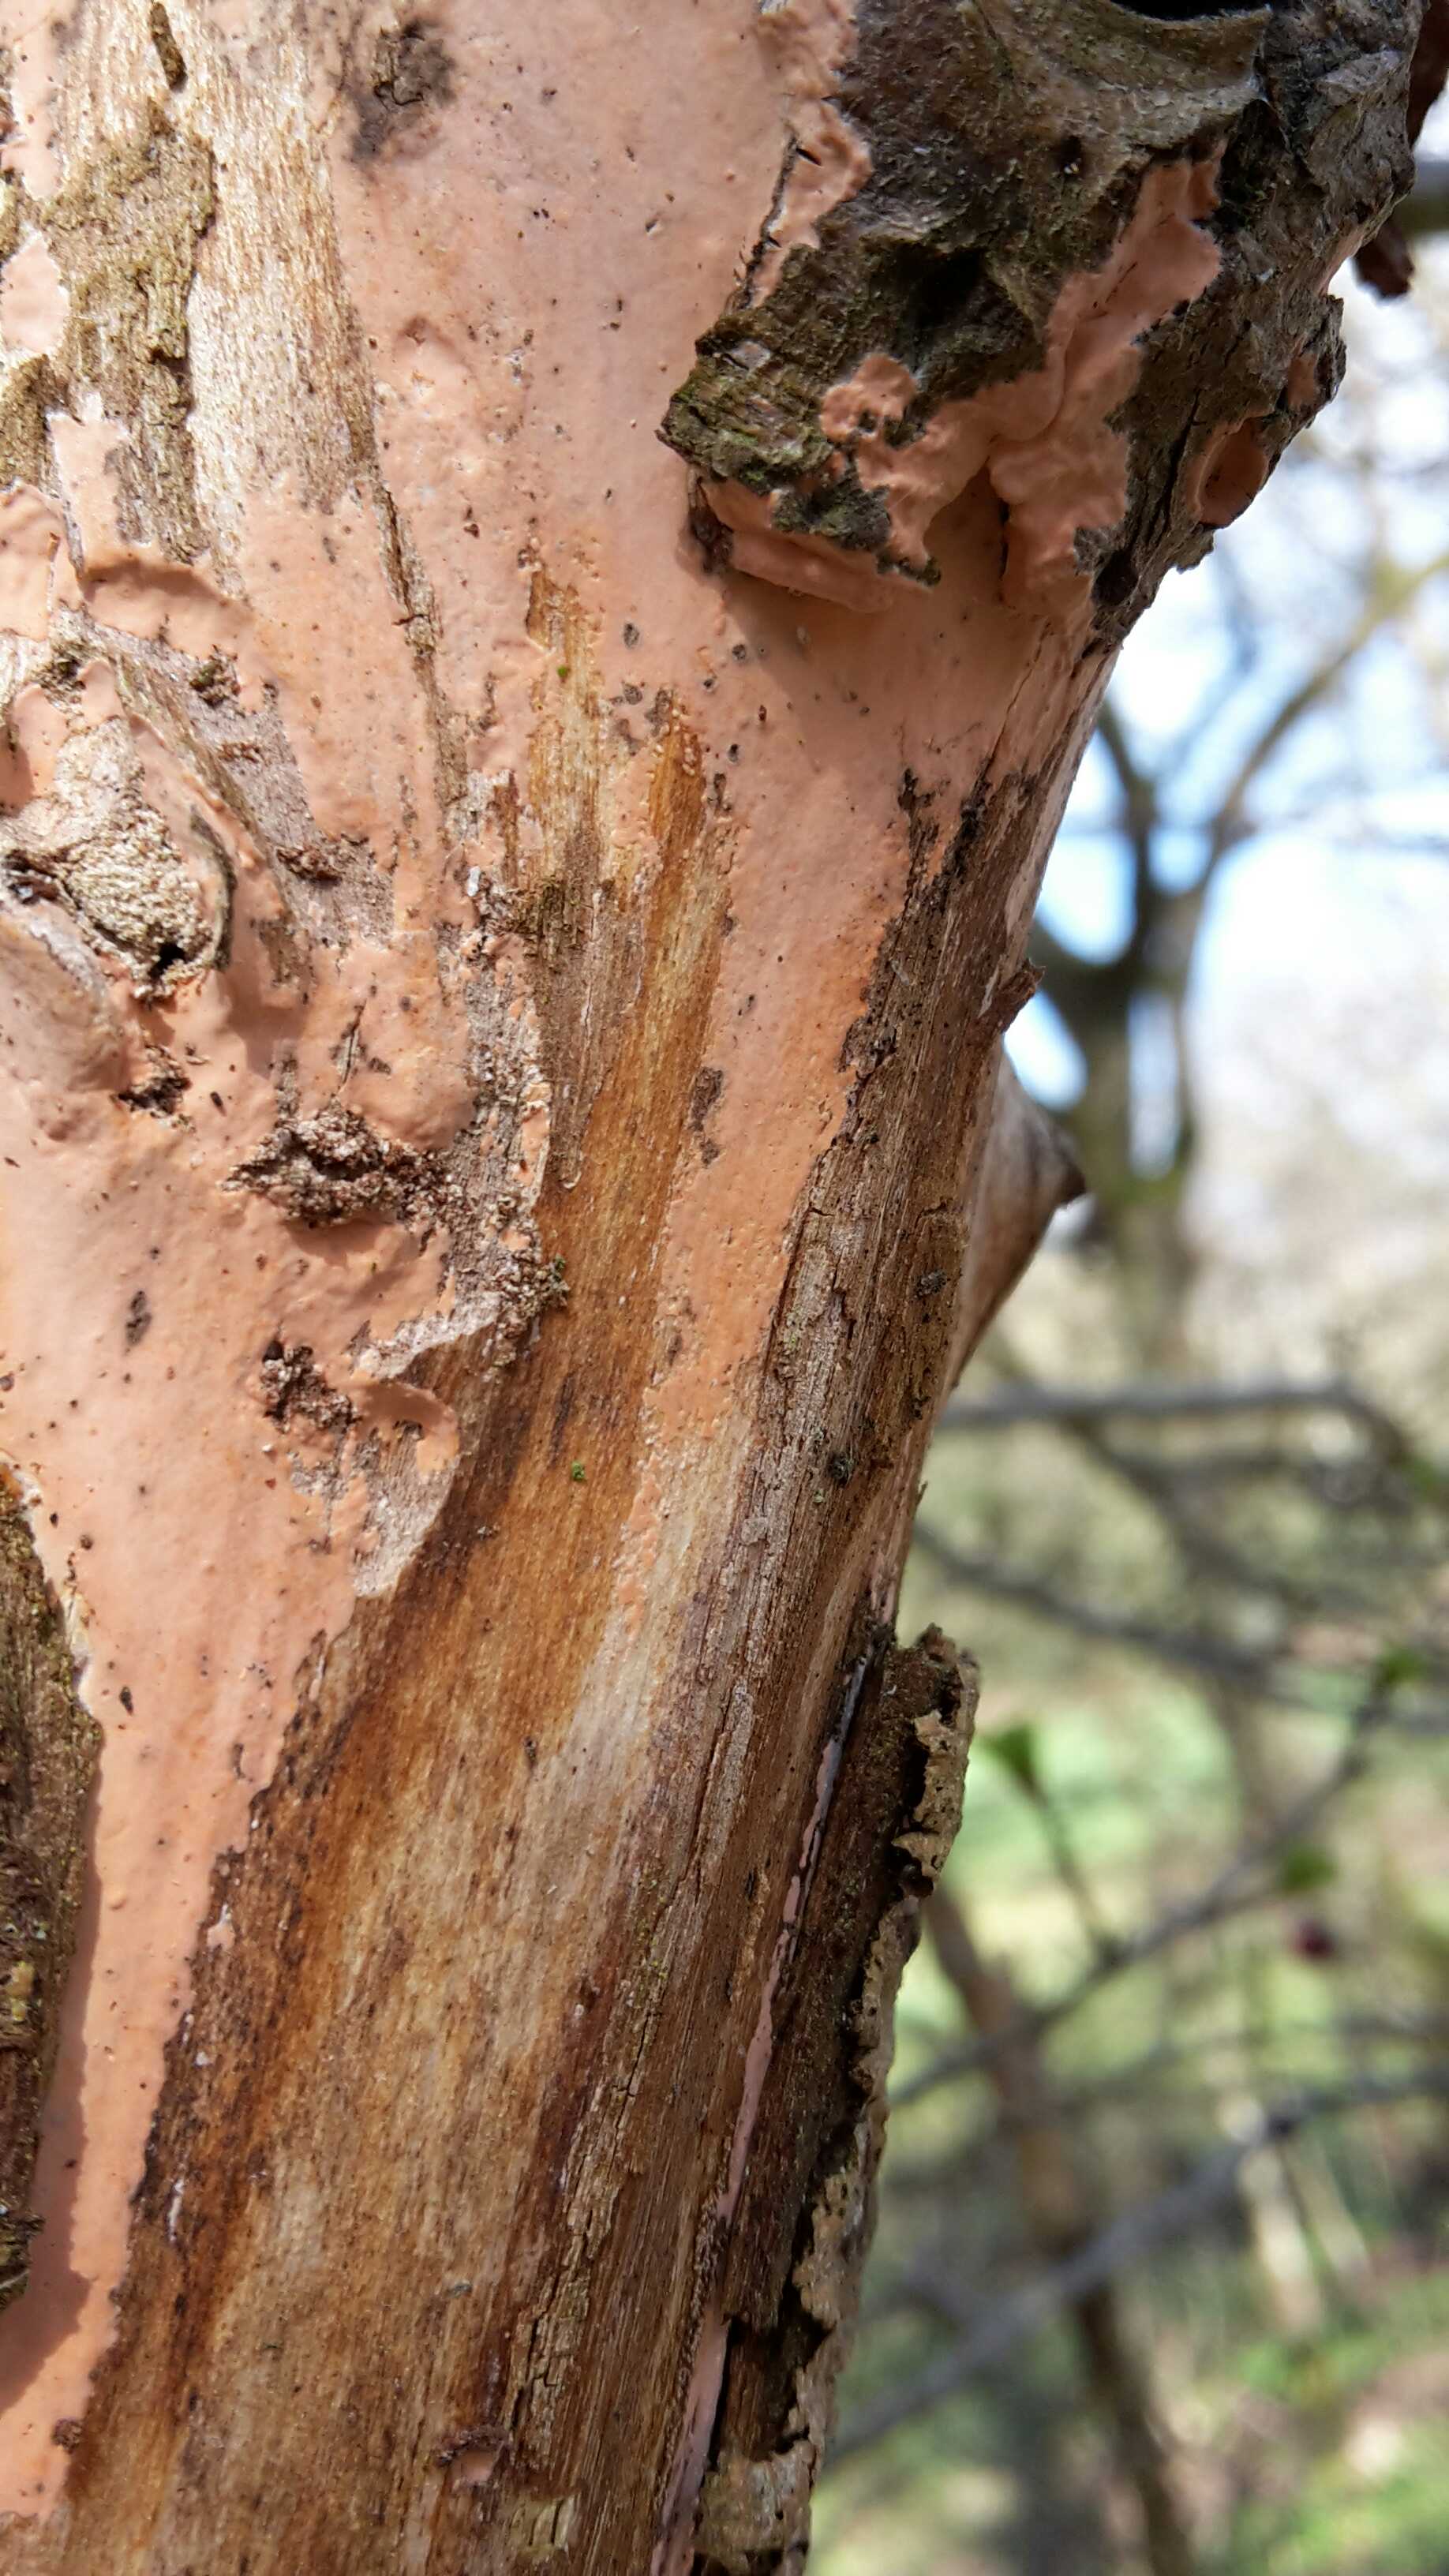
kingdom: Fungi
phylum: Basidiomycota
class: Agaricomycetes
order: Russulales
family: Peniophoraceae
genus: Peniophora
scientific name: Peniophora incarnata
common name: laksefarvet voksskind
